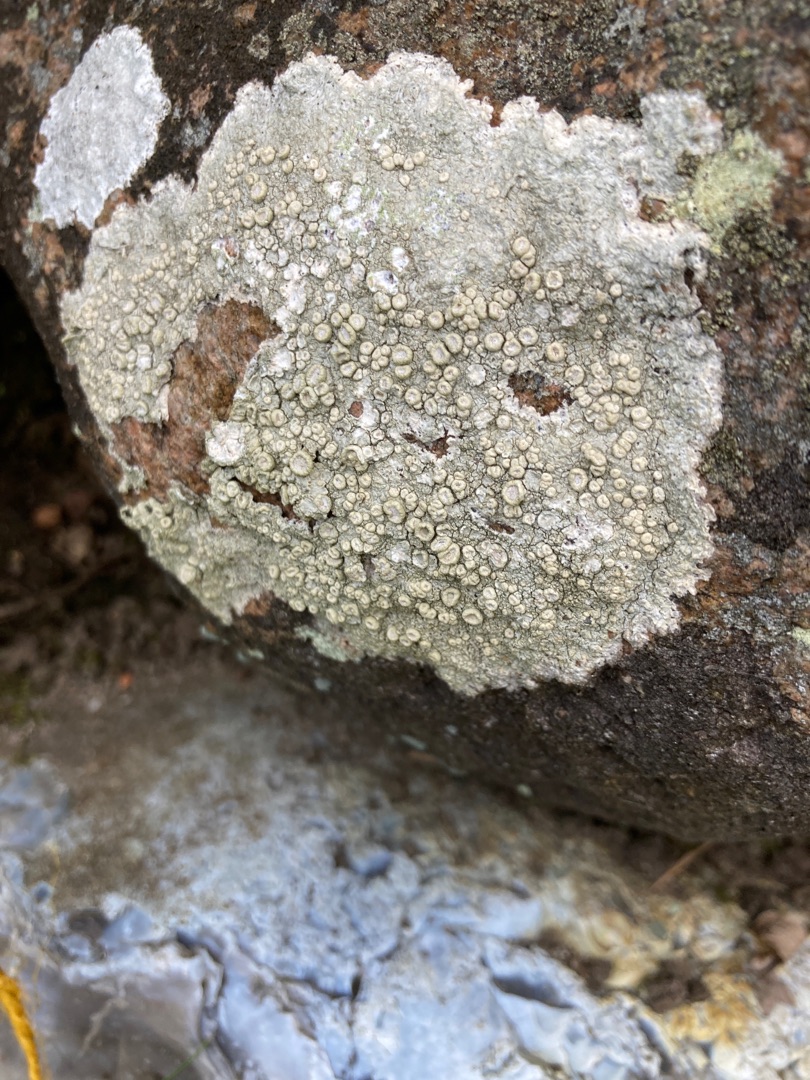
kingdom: Fungi
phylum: Ascomycota
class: Lecanoromycetes
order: Pertusariales
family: Ochrolechiaceae
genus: Ochrolechia
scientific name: Ochrolechia parella
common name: Almindelig blegskivelav
